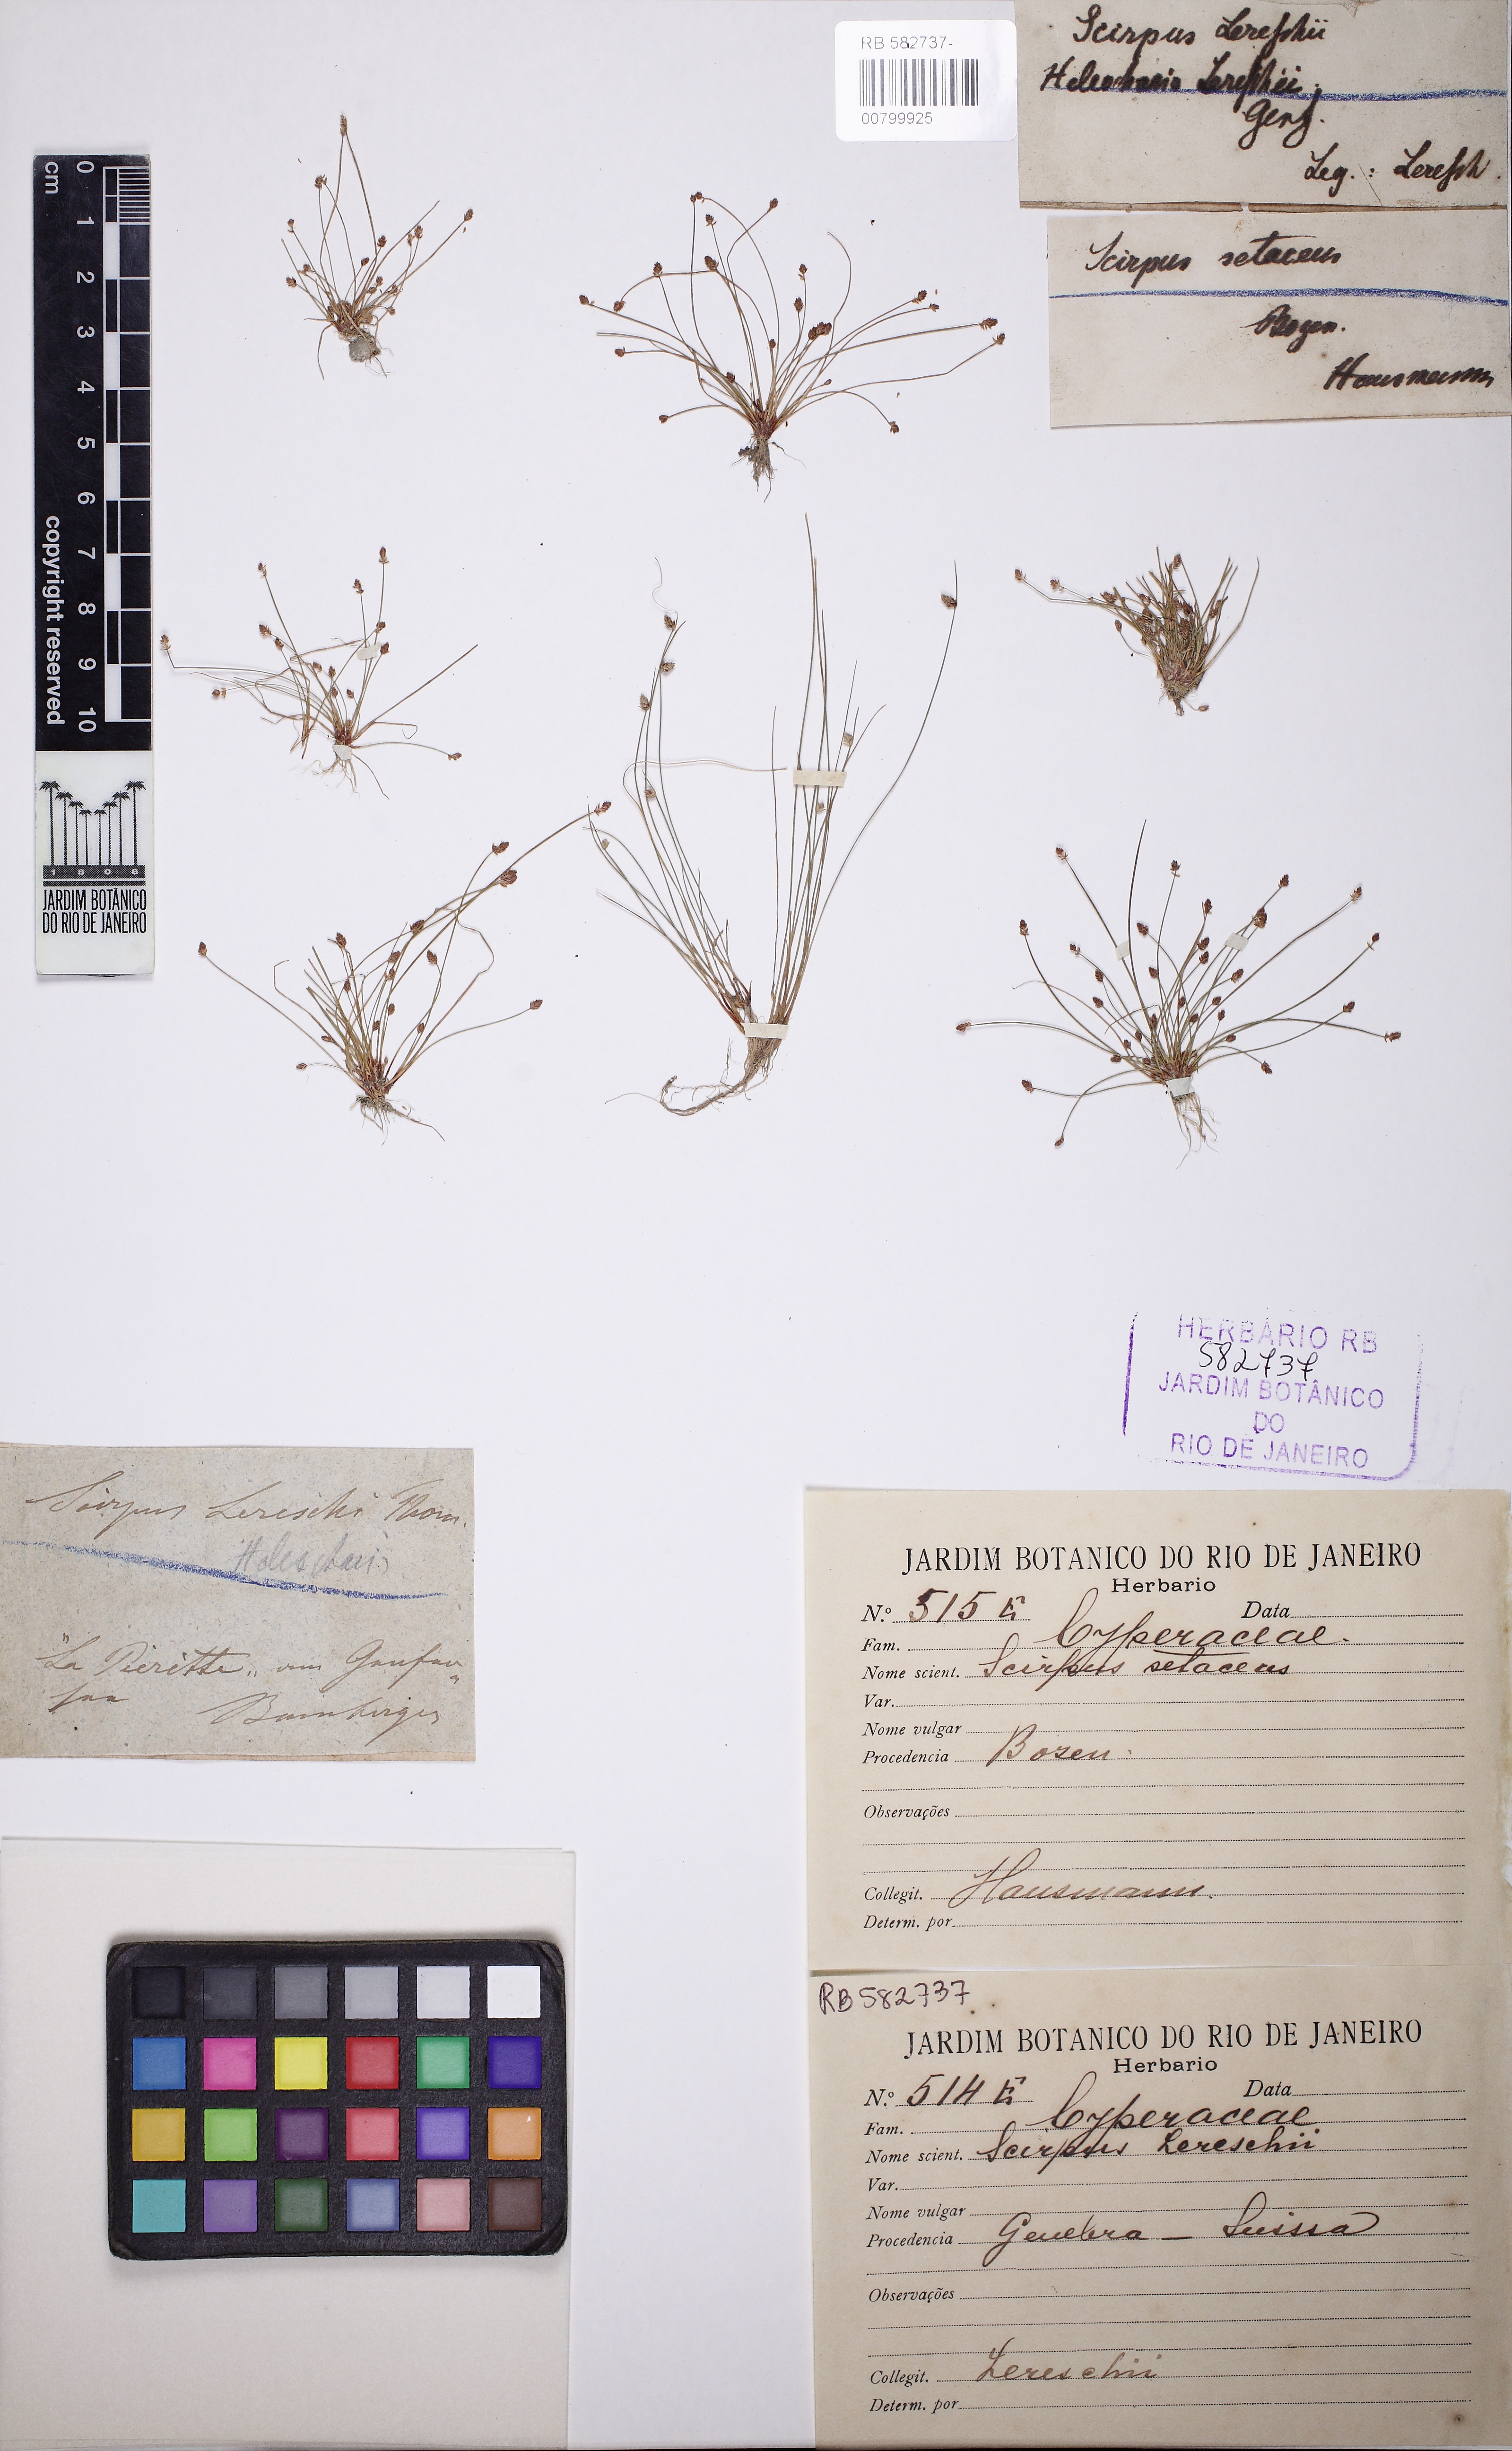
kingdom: Plantae
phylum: Tracheophyta
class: Liliopsida
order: Poales
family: Cyperaceae
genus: Eleocharis
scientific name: Eleocharis atropurpurea
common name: Purple spikerush
